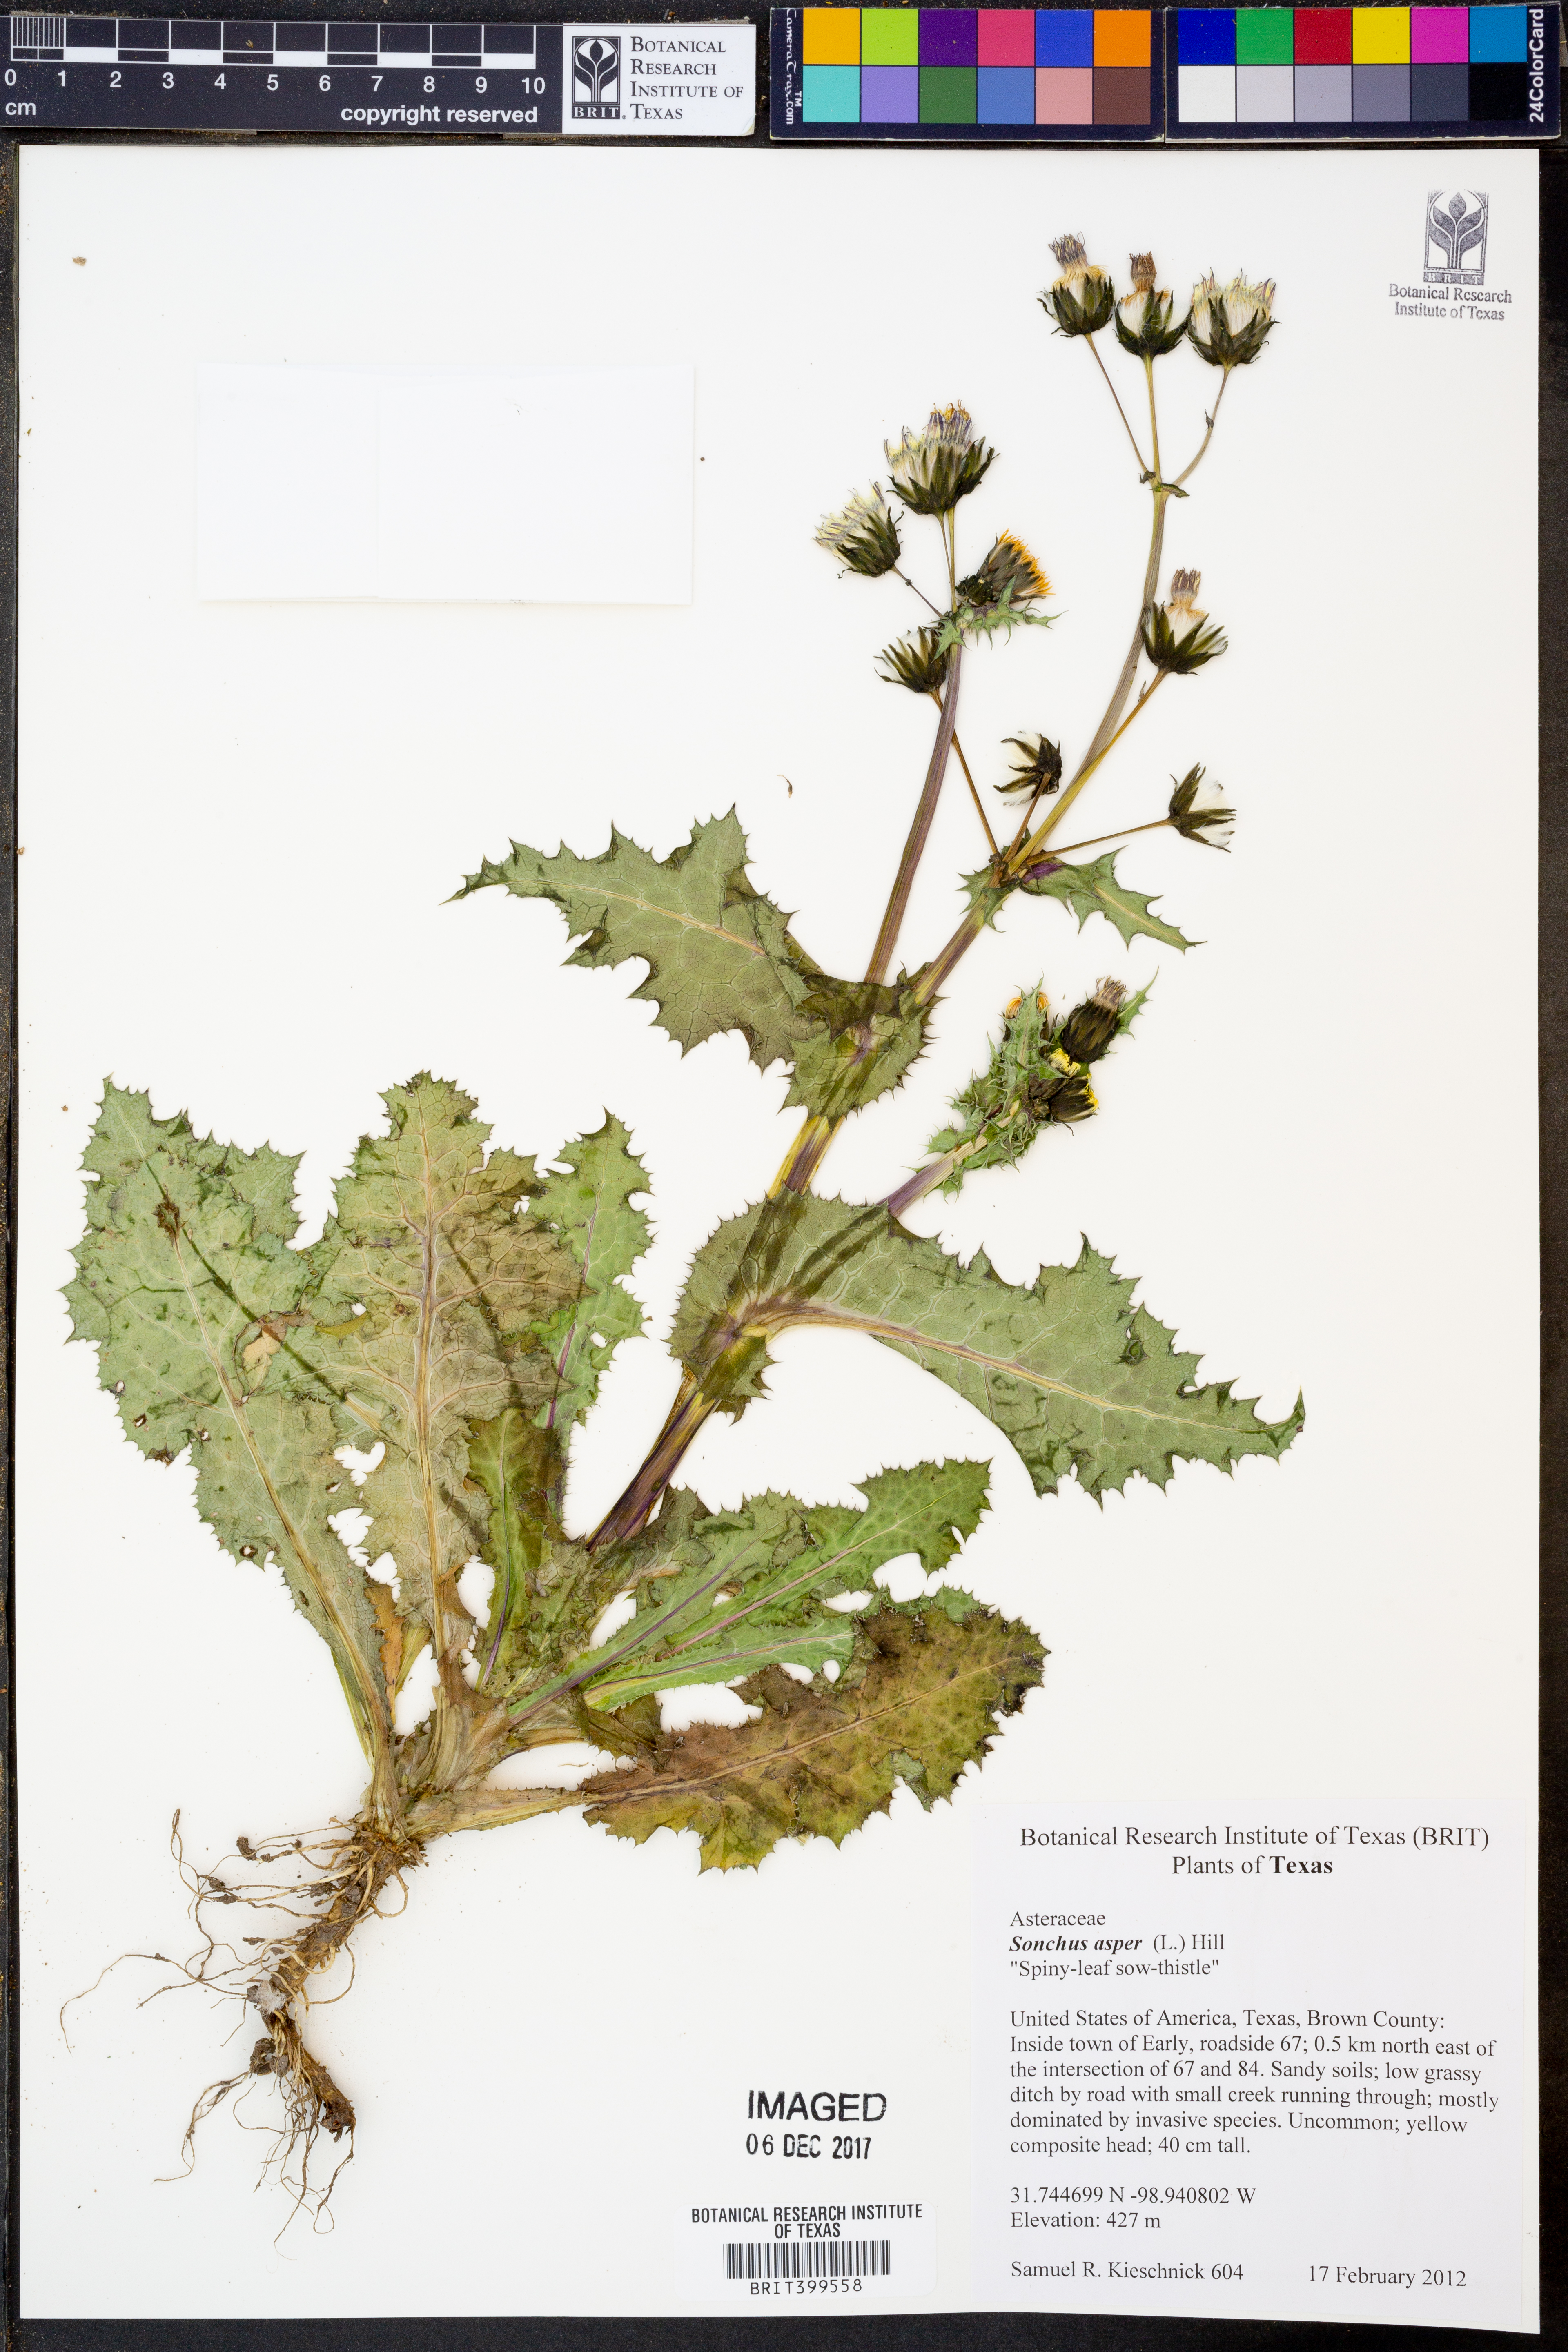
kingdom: Plantae
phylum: Tracheophyta
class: Magnoliopsida
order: Asterales
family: Asteraceae
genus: Sonchus
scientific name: Sonchus asper
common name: Prickly sow-thistle
